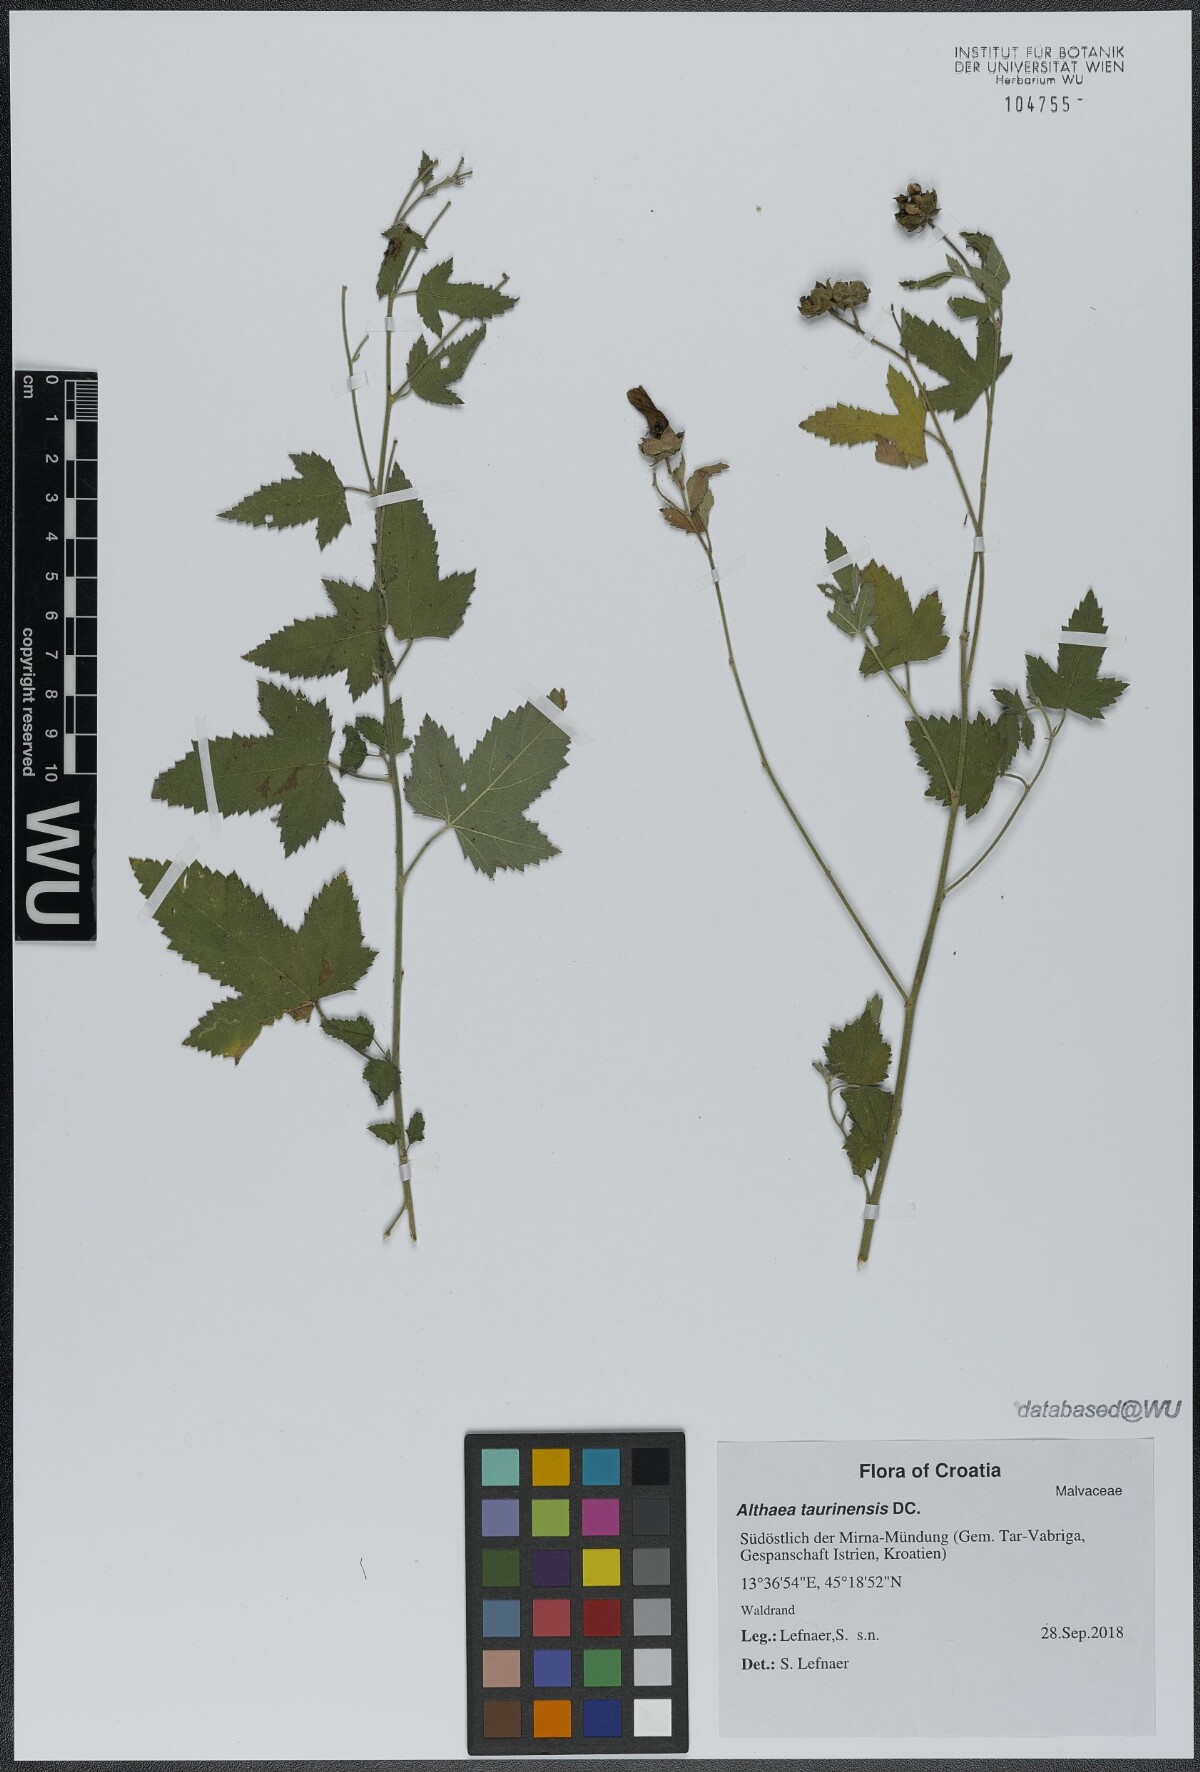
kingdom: Plantae
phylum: Tracheophyta
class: Magnoliopsida
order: Malvales
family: Malvaceae
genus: Althaea
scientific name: Althaea taurinensis
